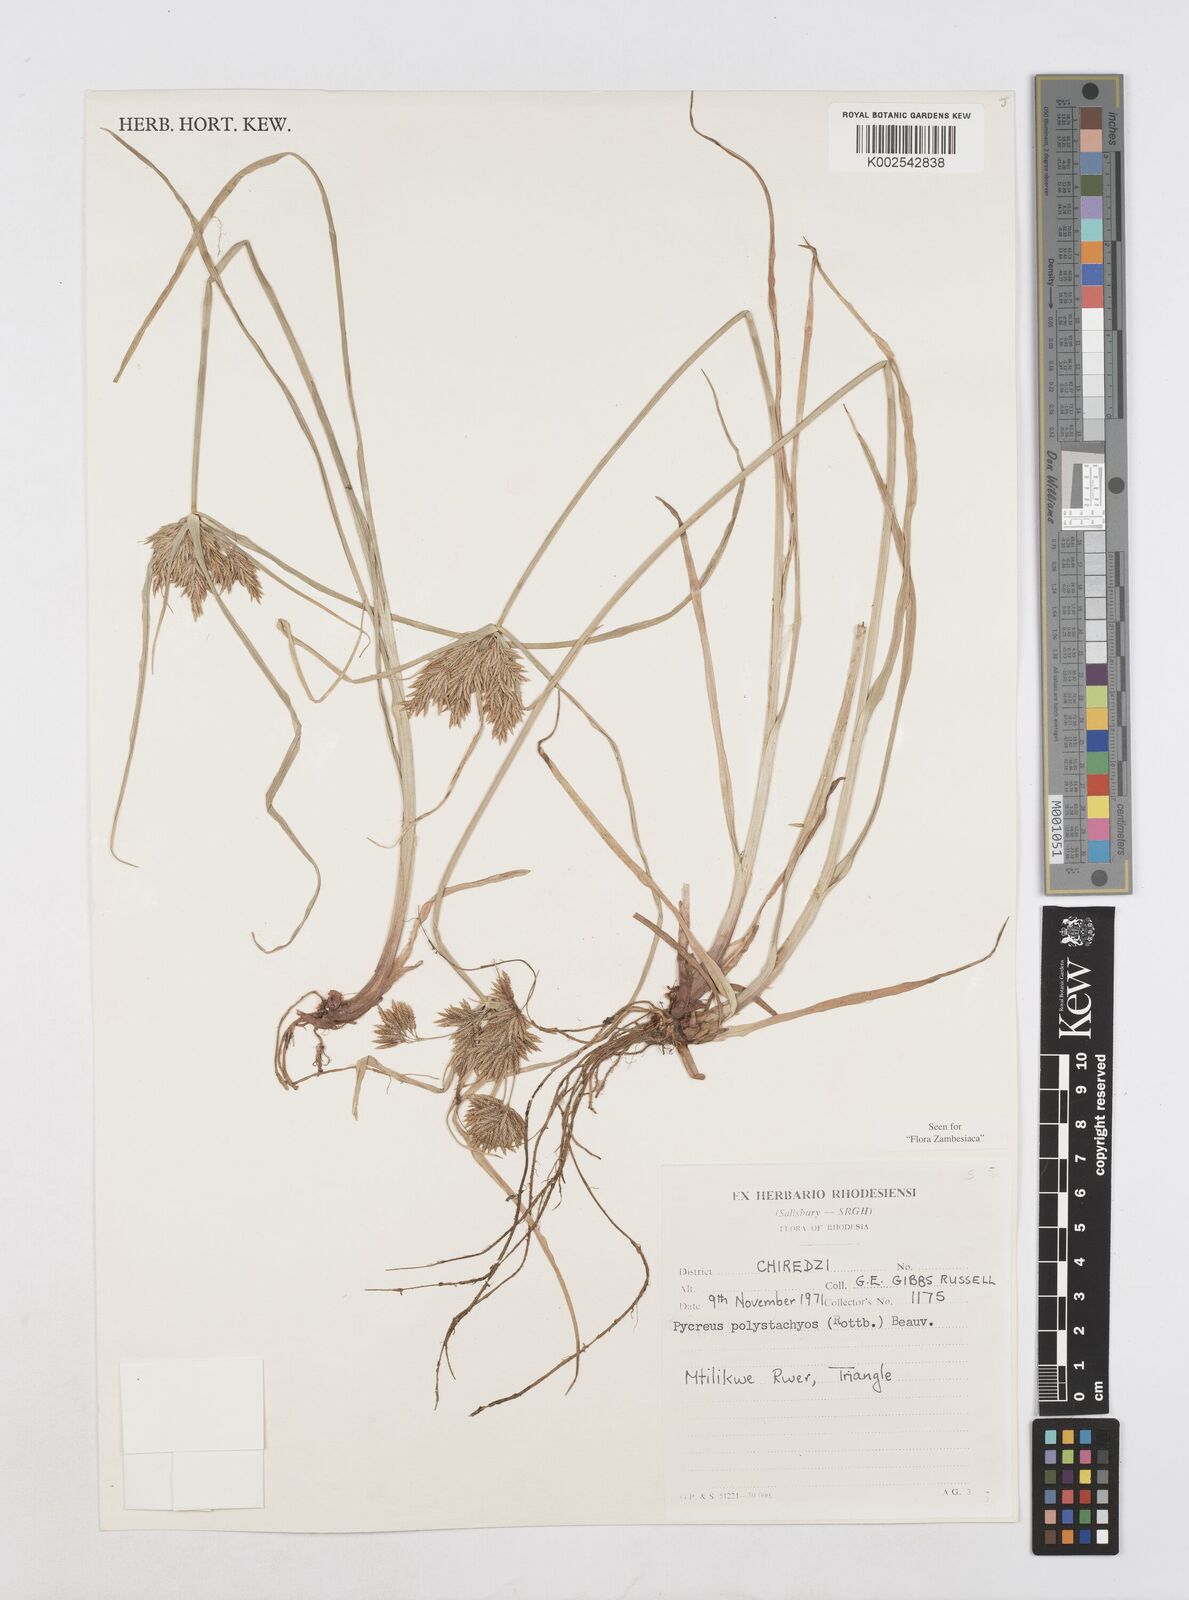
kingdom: Plantae
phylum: Tracheophyta
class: Liliopsida
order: Poales
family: Cyperaceae
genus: Cyperus
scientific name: Cyperus polystachyos
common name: Bunchy flat sedge
